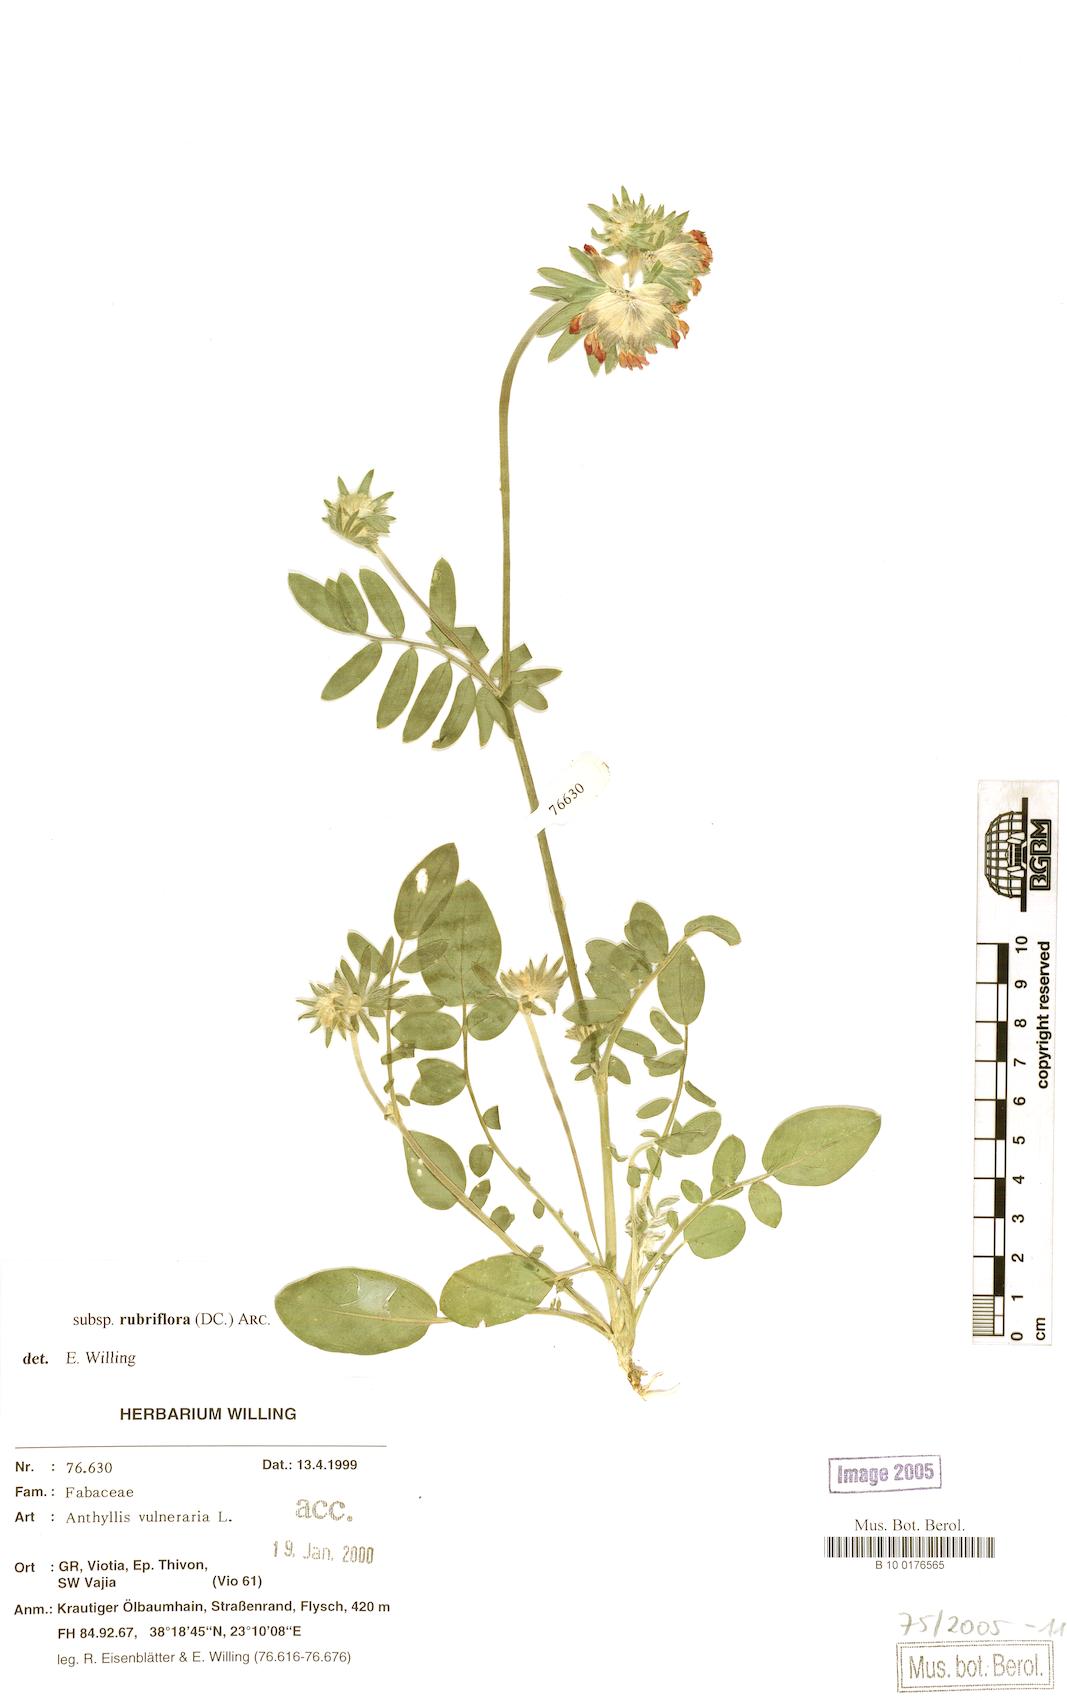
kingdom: Plantae
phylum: Tracheophyta
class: Magnoliopsida
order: Fabales
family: Fabaceae
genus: Anthyllis
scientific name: Anthyllis vulneraria
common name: Kidney vetch
